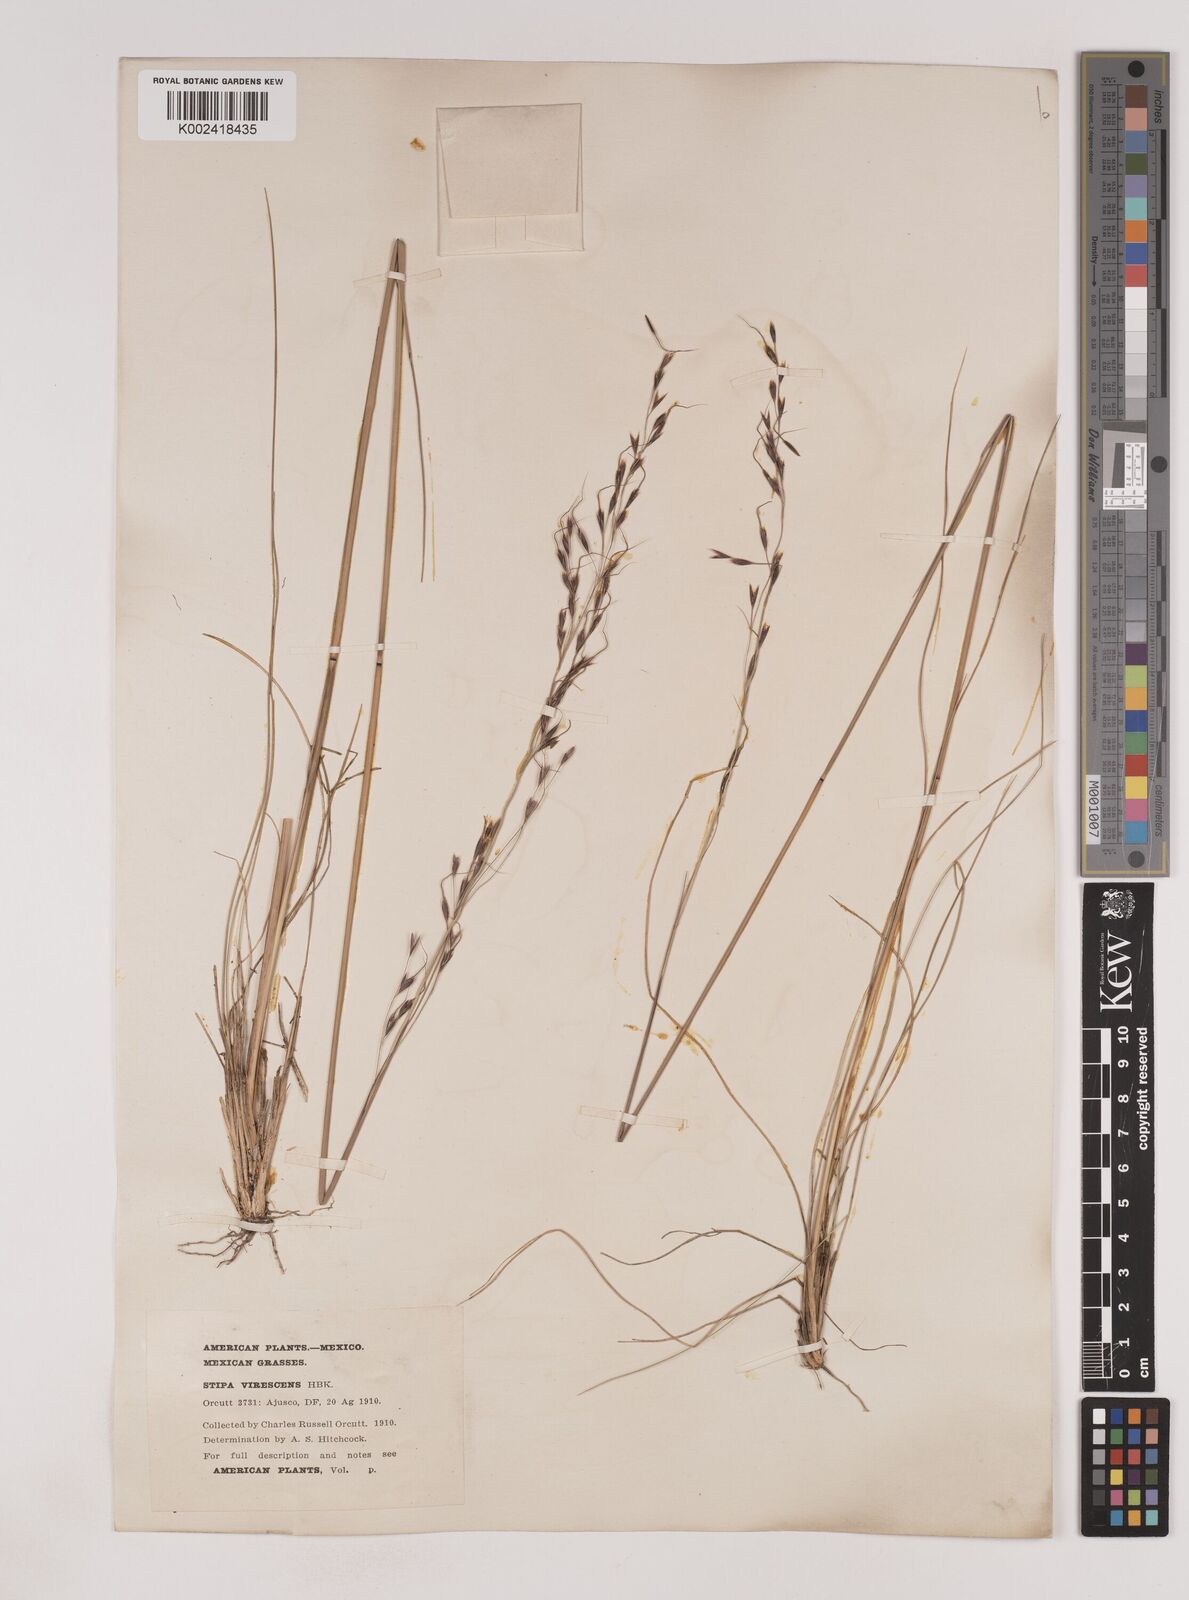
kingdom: Plantae
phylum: Tracheophyta
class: Liliopsida
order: Poales
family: Poaceae
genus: Piptochaetium
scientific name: Piptochaetium virescens
